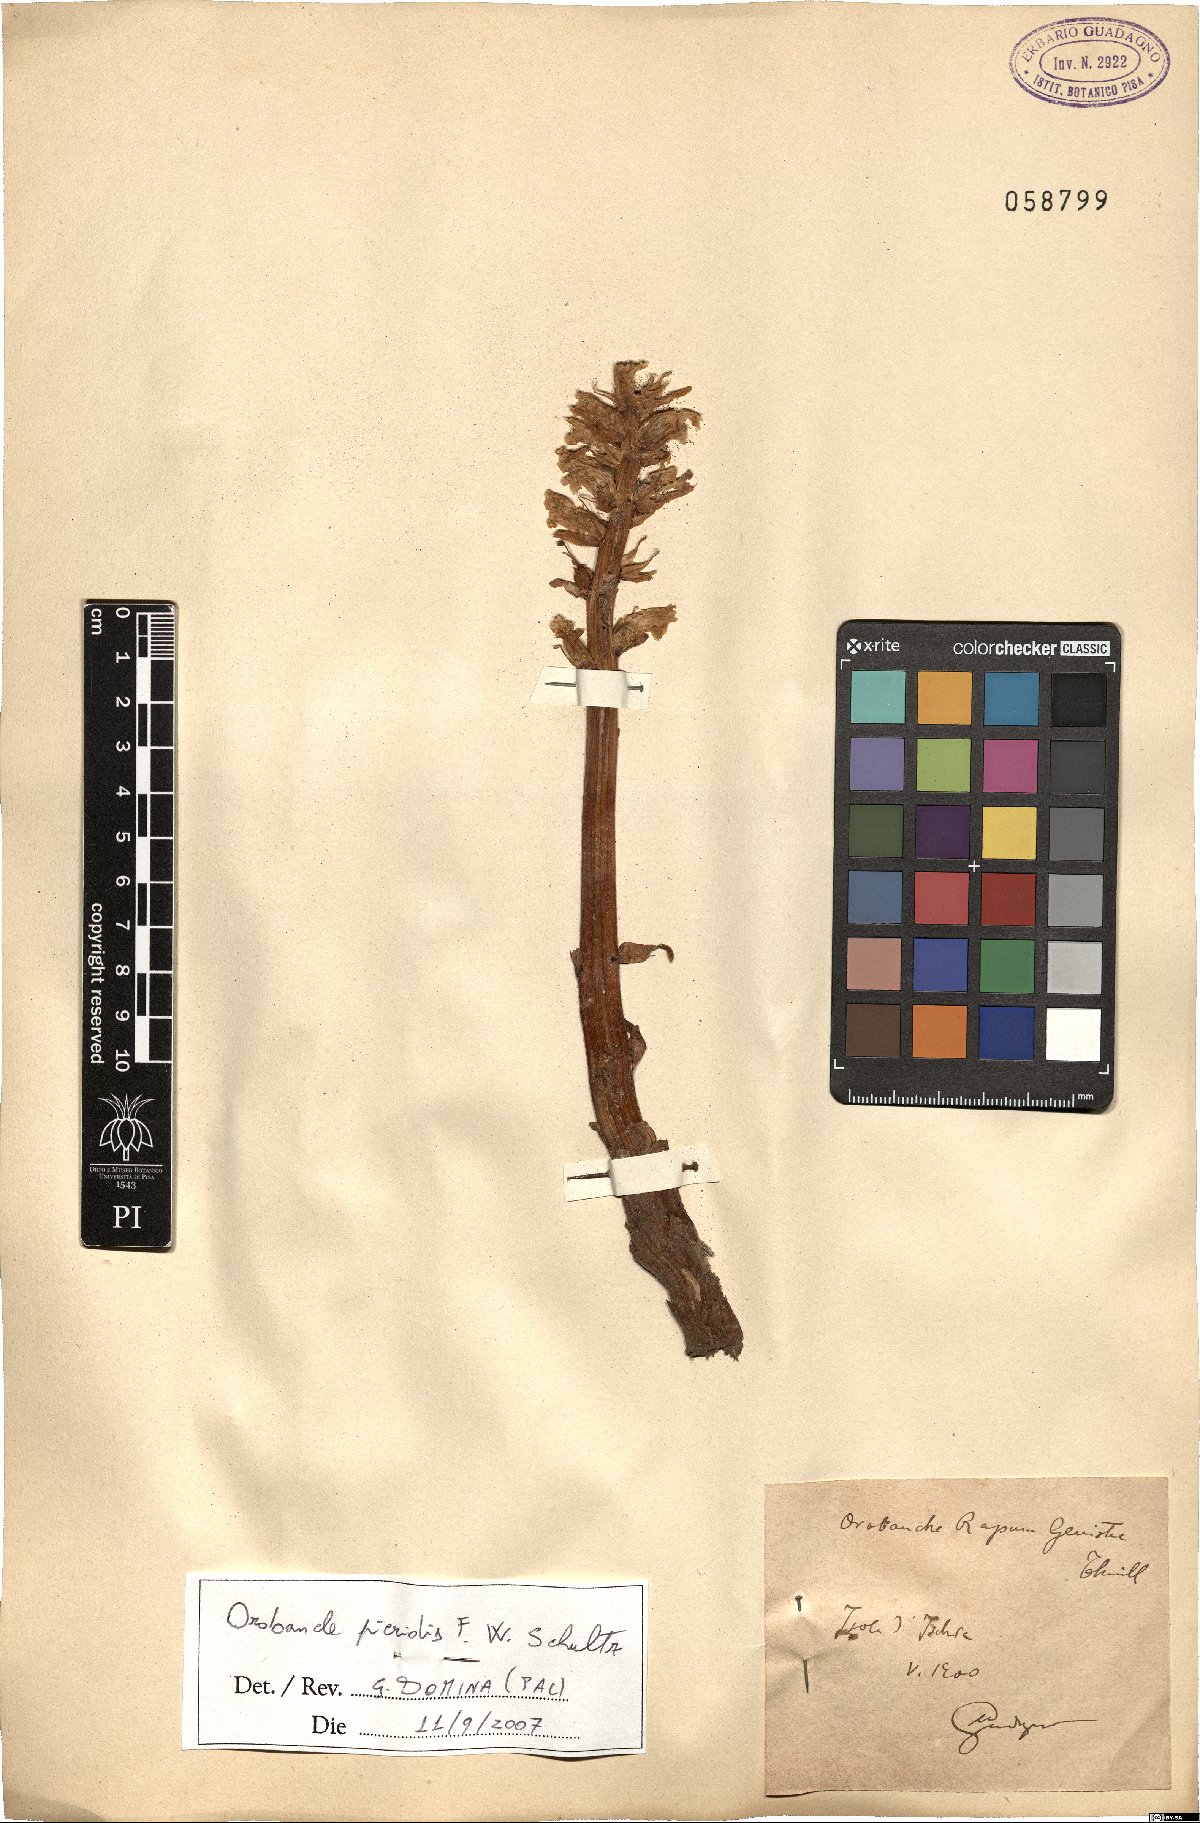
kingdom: Plantae
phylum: Tracheophyta
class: Magnoliopsida
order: Lamiales
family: Orobanchaceae
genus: Orobanche
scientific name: Orobanche picridis
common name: Oxtongue broomrape
